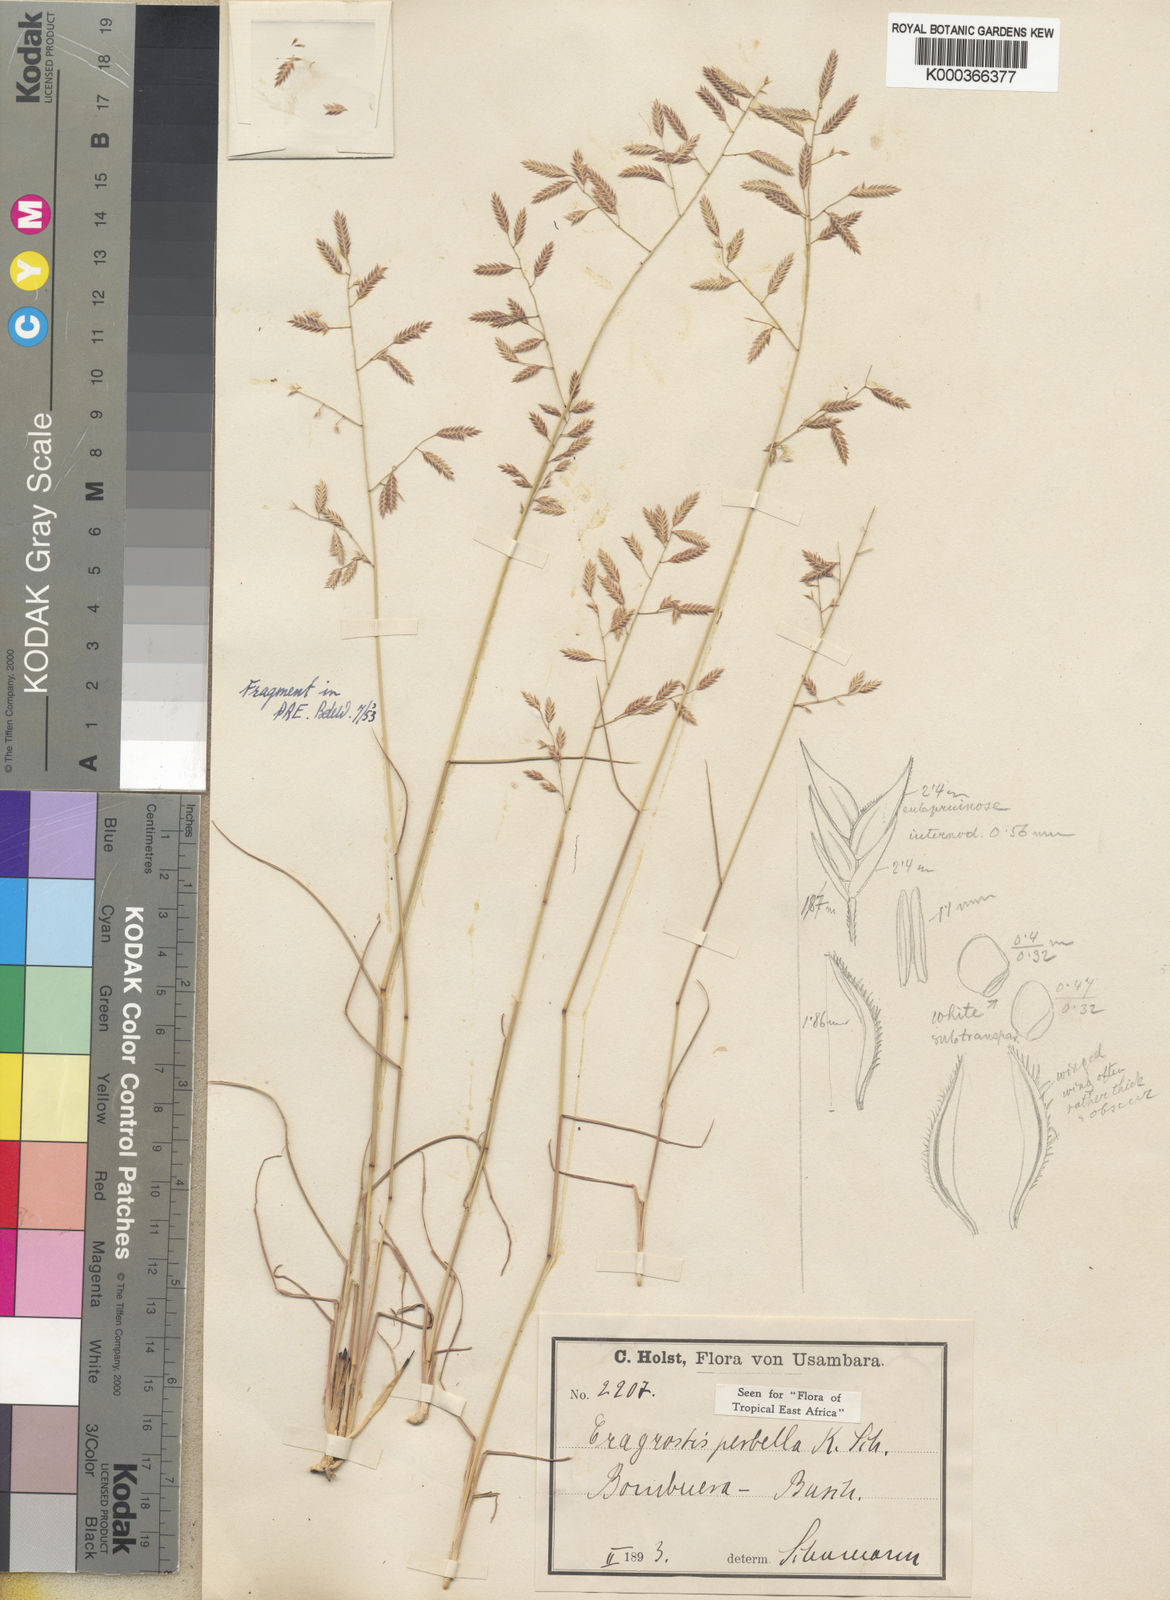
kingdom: Plantae
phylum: Tracheophyta
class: Liliopsida
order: Poales
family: Poaceae
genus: Eragrostis
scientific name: Eragrostis
